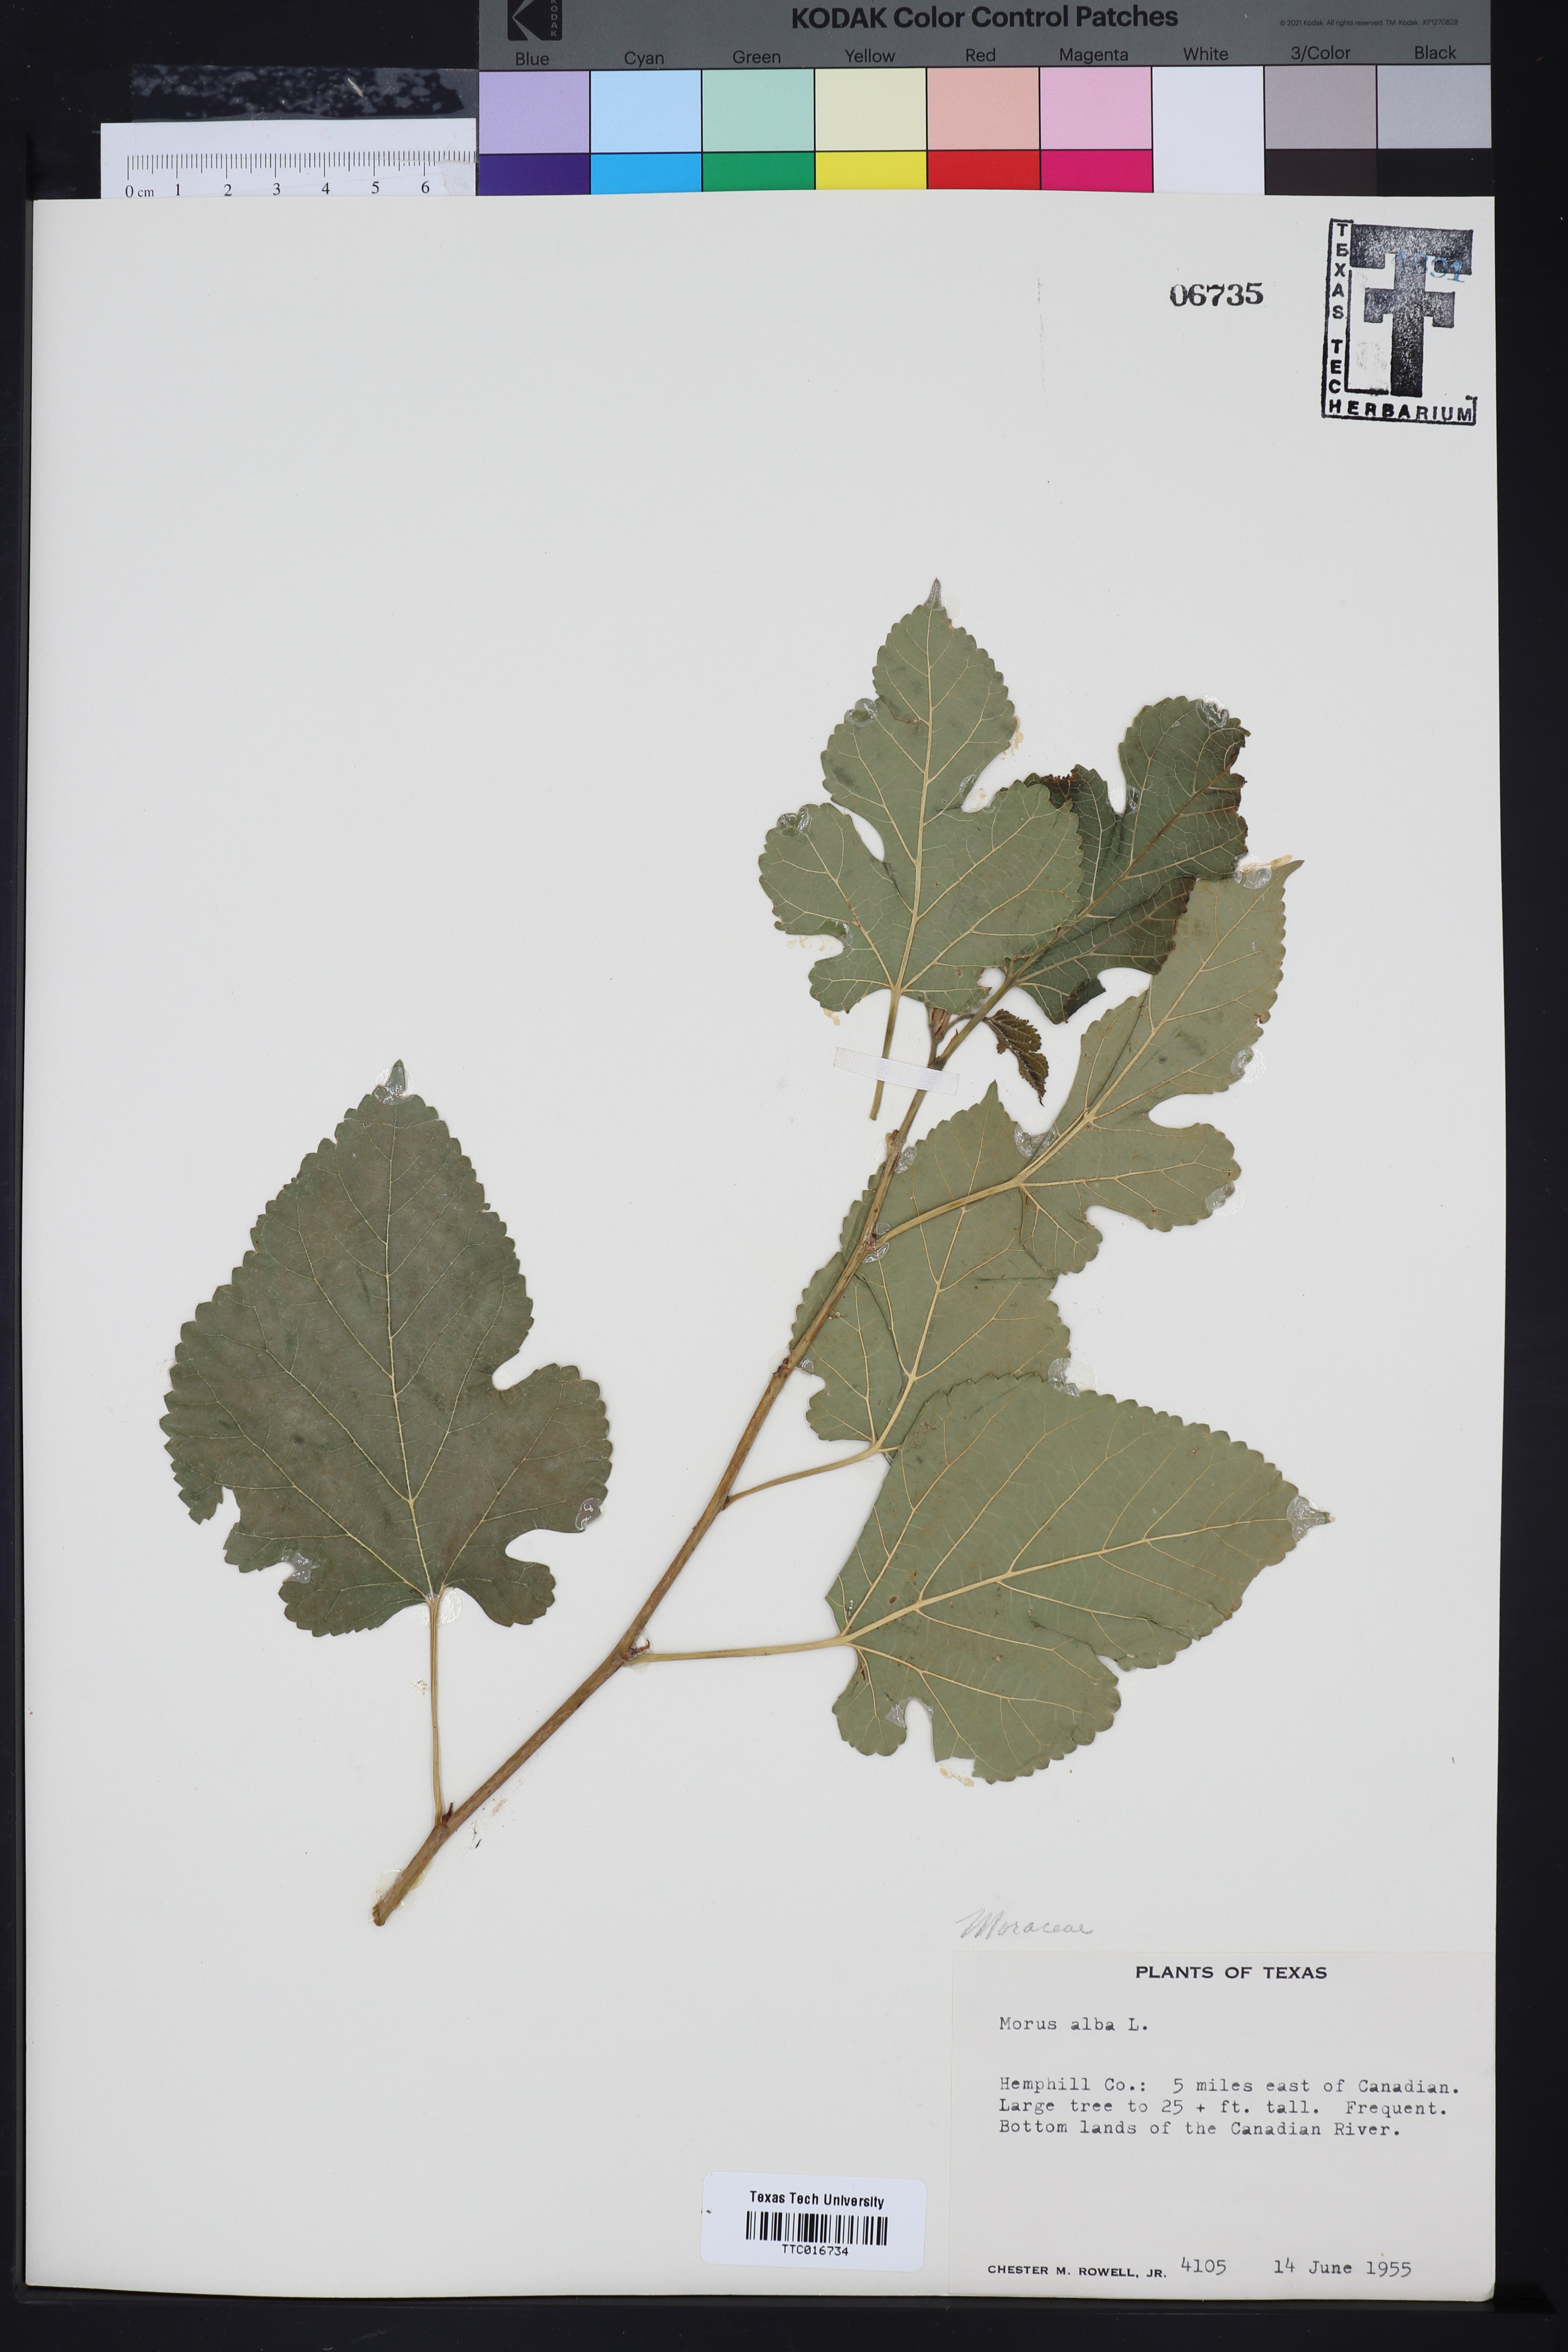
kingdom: Plantae
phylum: Tracheophyta
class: Magnoliopsida
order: Rosales
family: Moraceae
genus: Morus
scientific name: Morus alba
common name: White mulberry
